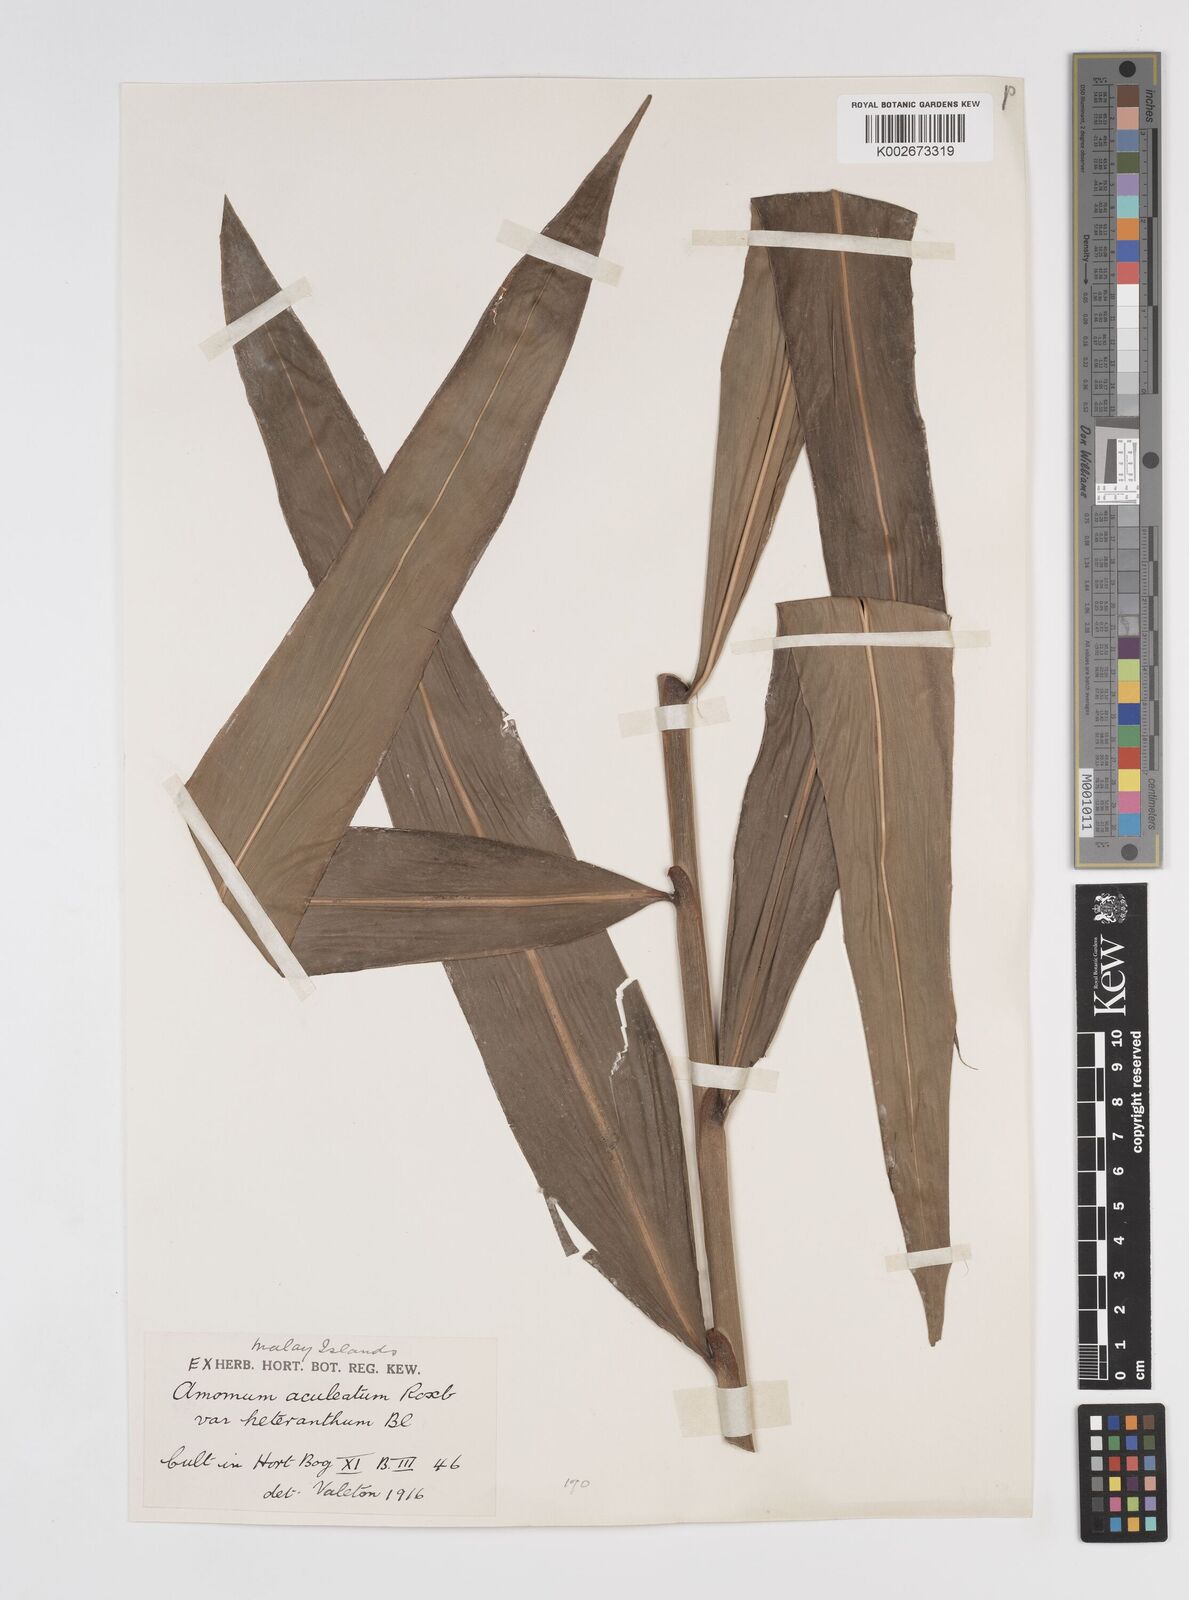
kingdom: Plantae
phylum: Tracheophyta
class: Liliopsida
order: Zingiberales
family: Zingiberaceae
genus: Meistera
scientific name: Meistera aculeata
